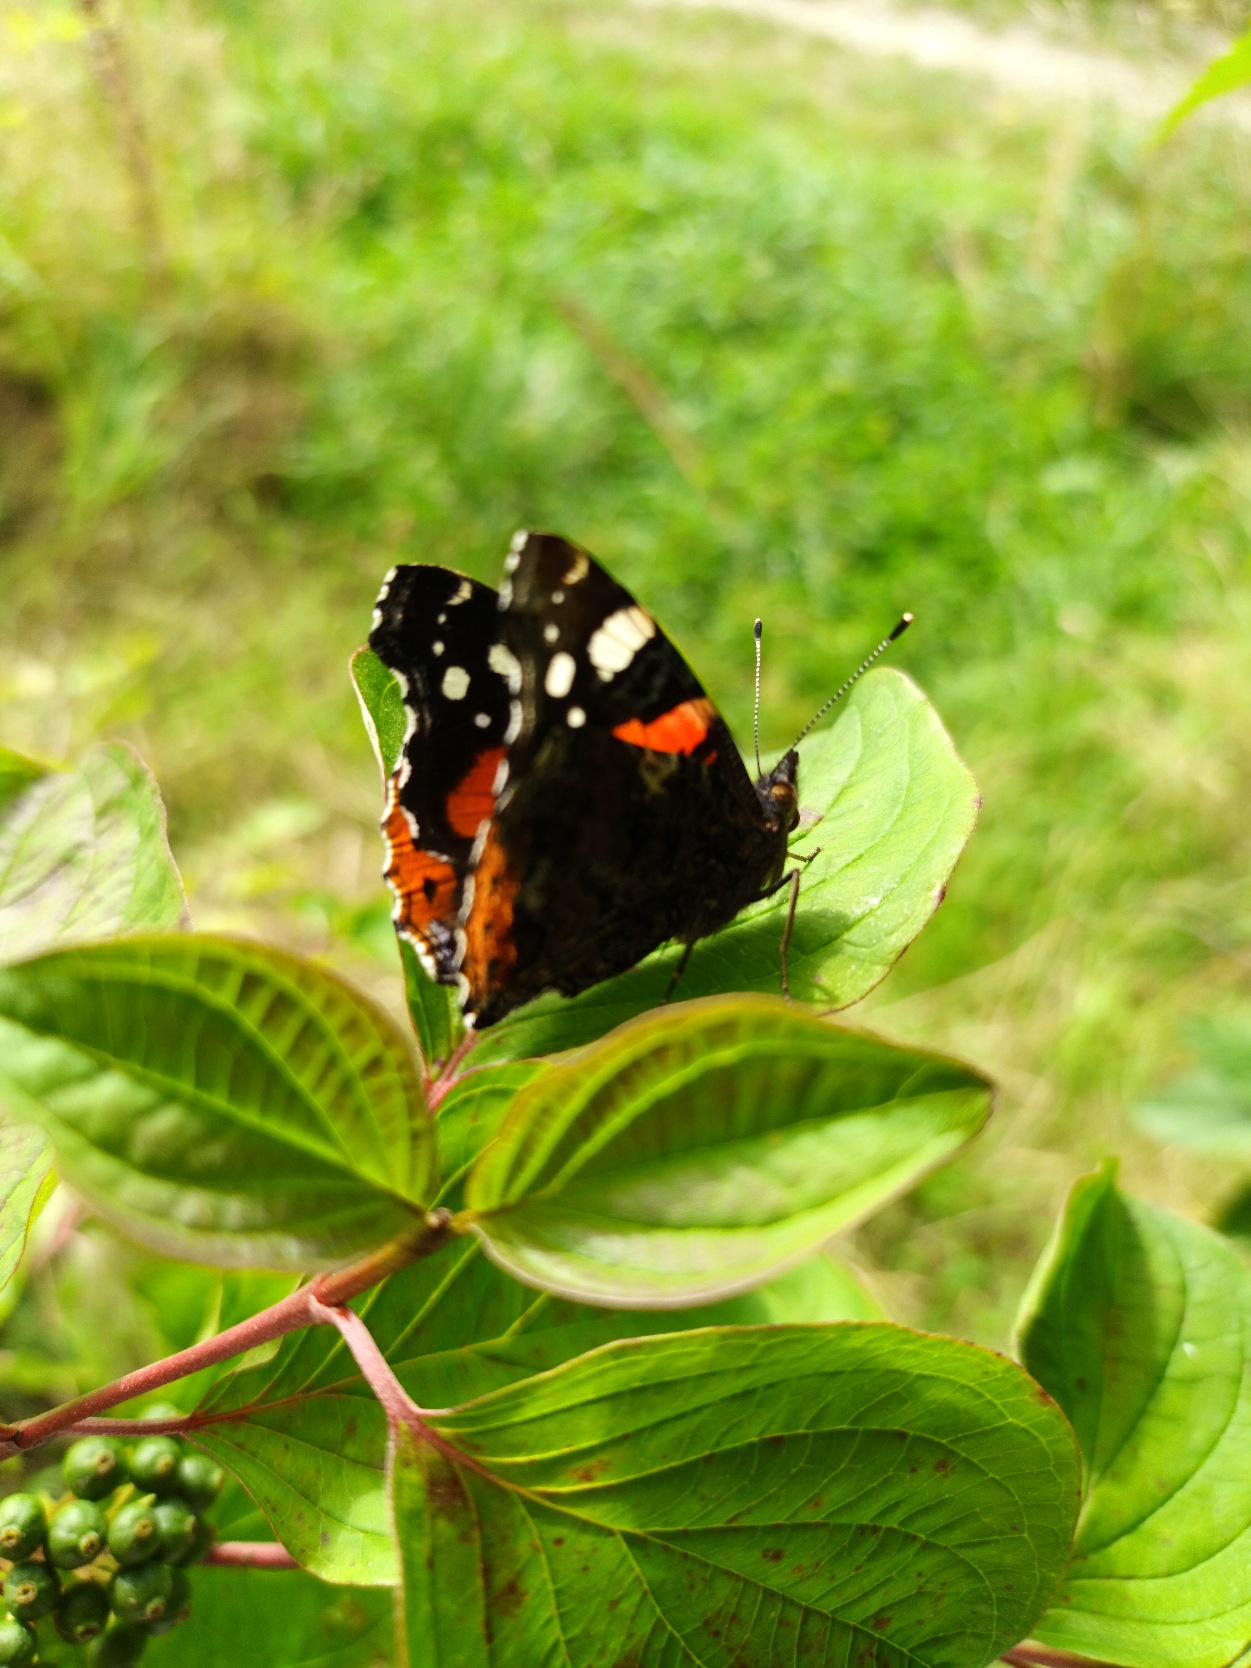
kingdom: Animalia
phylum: Arthropoda
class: Insecta
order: Lepidoptera
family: Nymphalidae
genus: Vanessa
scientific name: Vanessa atalanta
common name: Admiral
